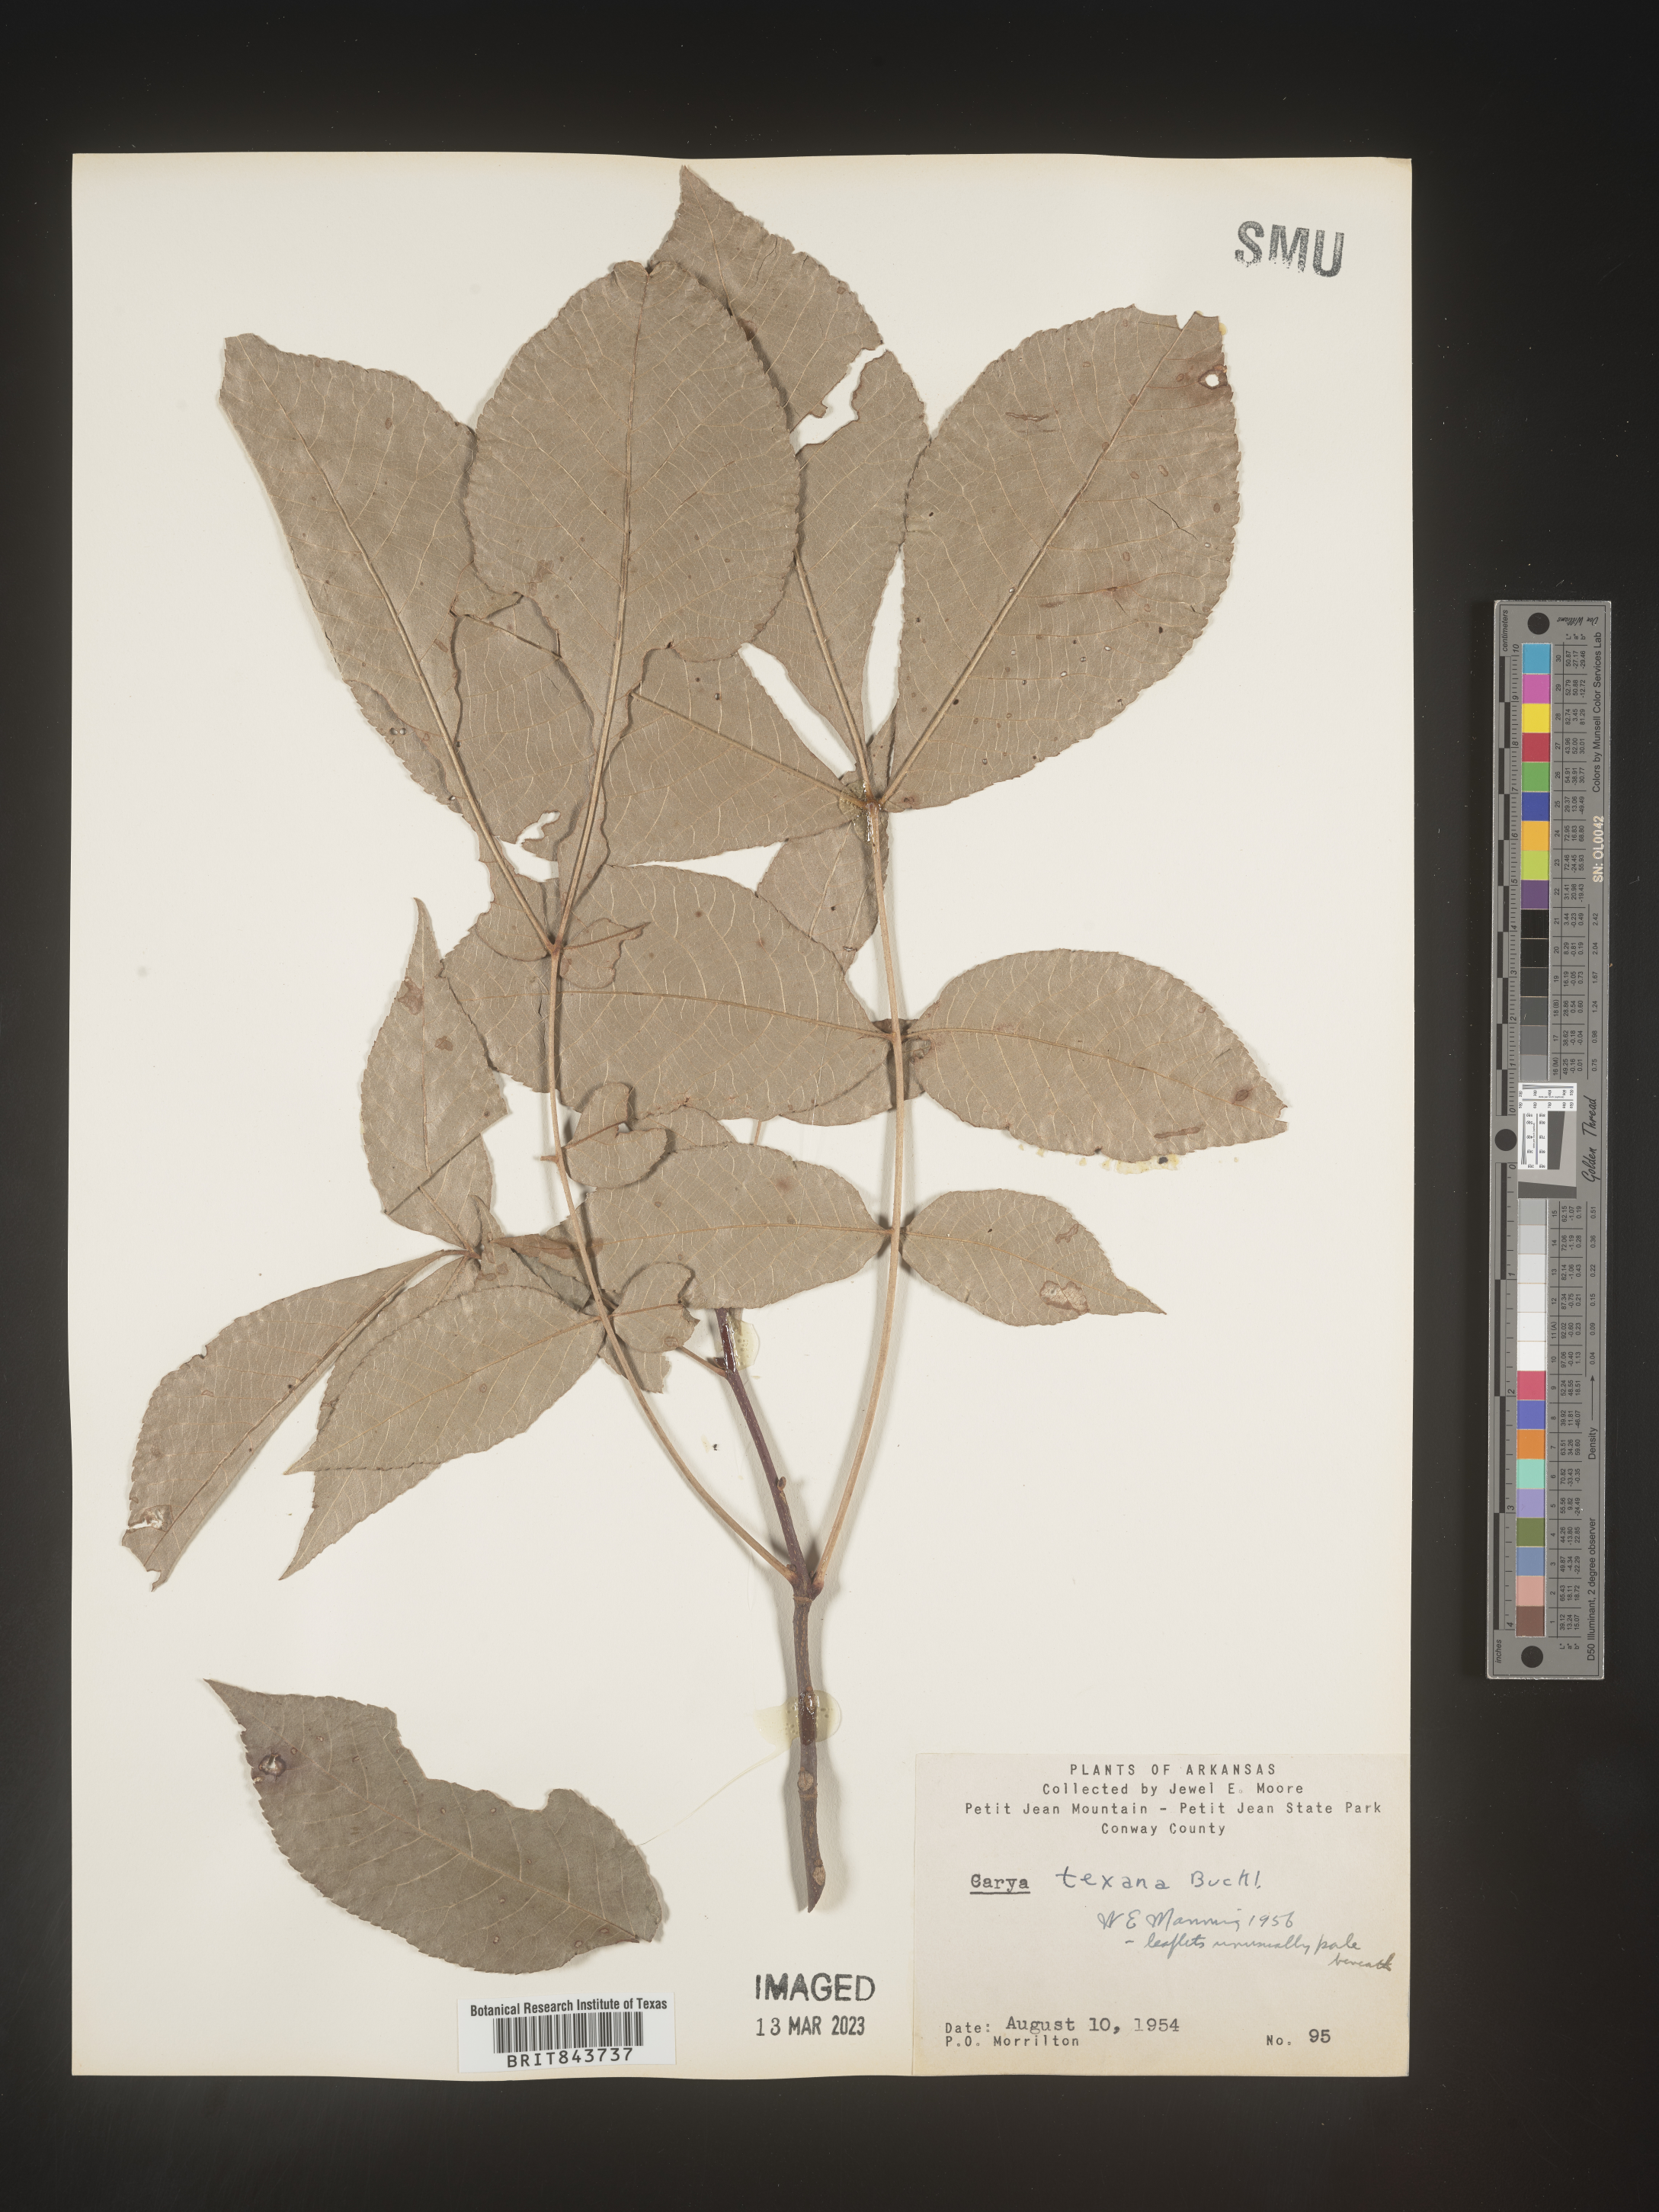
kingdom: Plantae
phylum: Tracheophyta
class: Magnoliopsida
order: Fagales
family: Juglandaceae
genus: Carya
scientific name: Carya texana
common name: Black hickory
